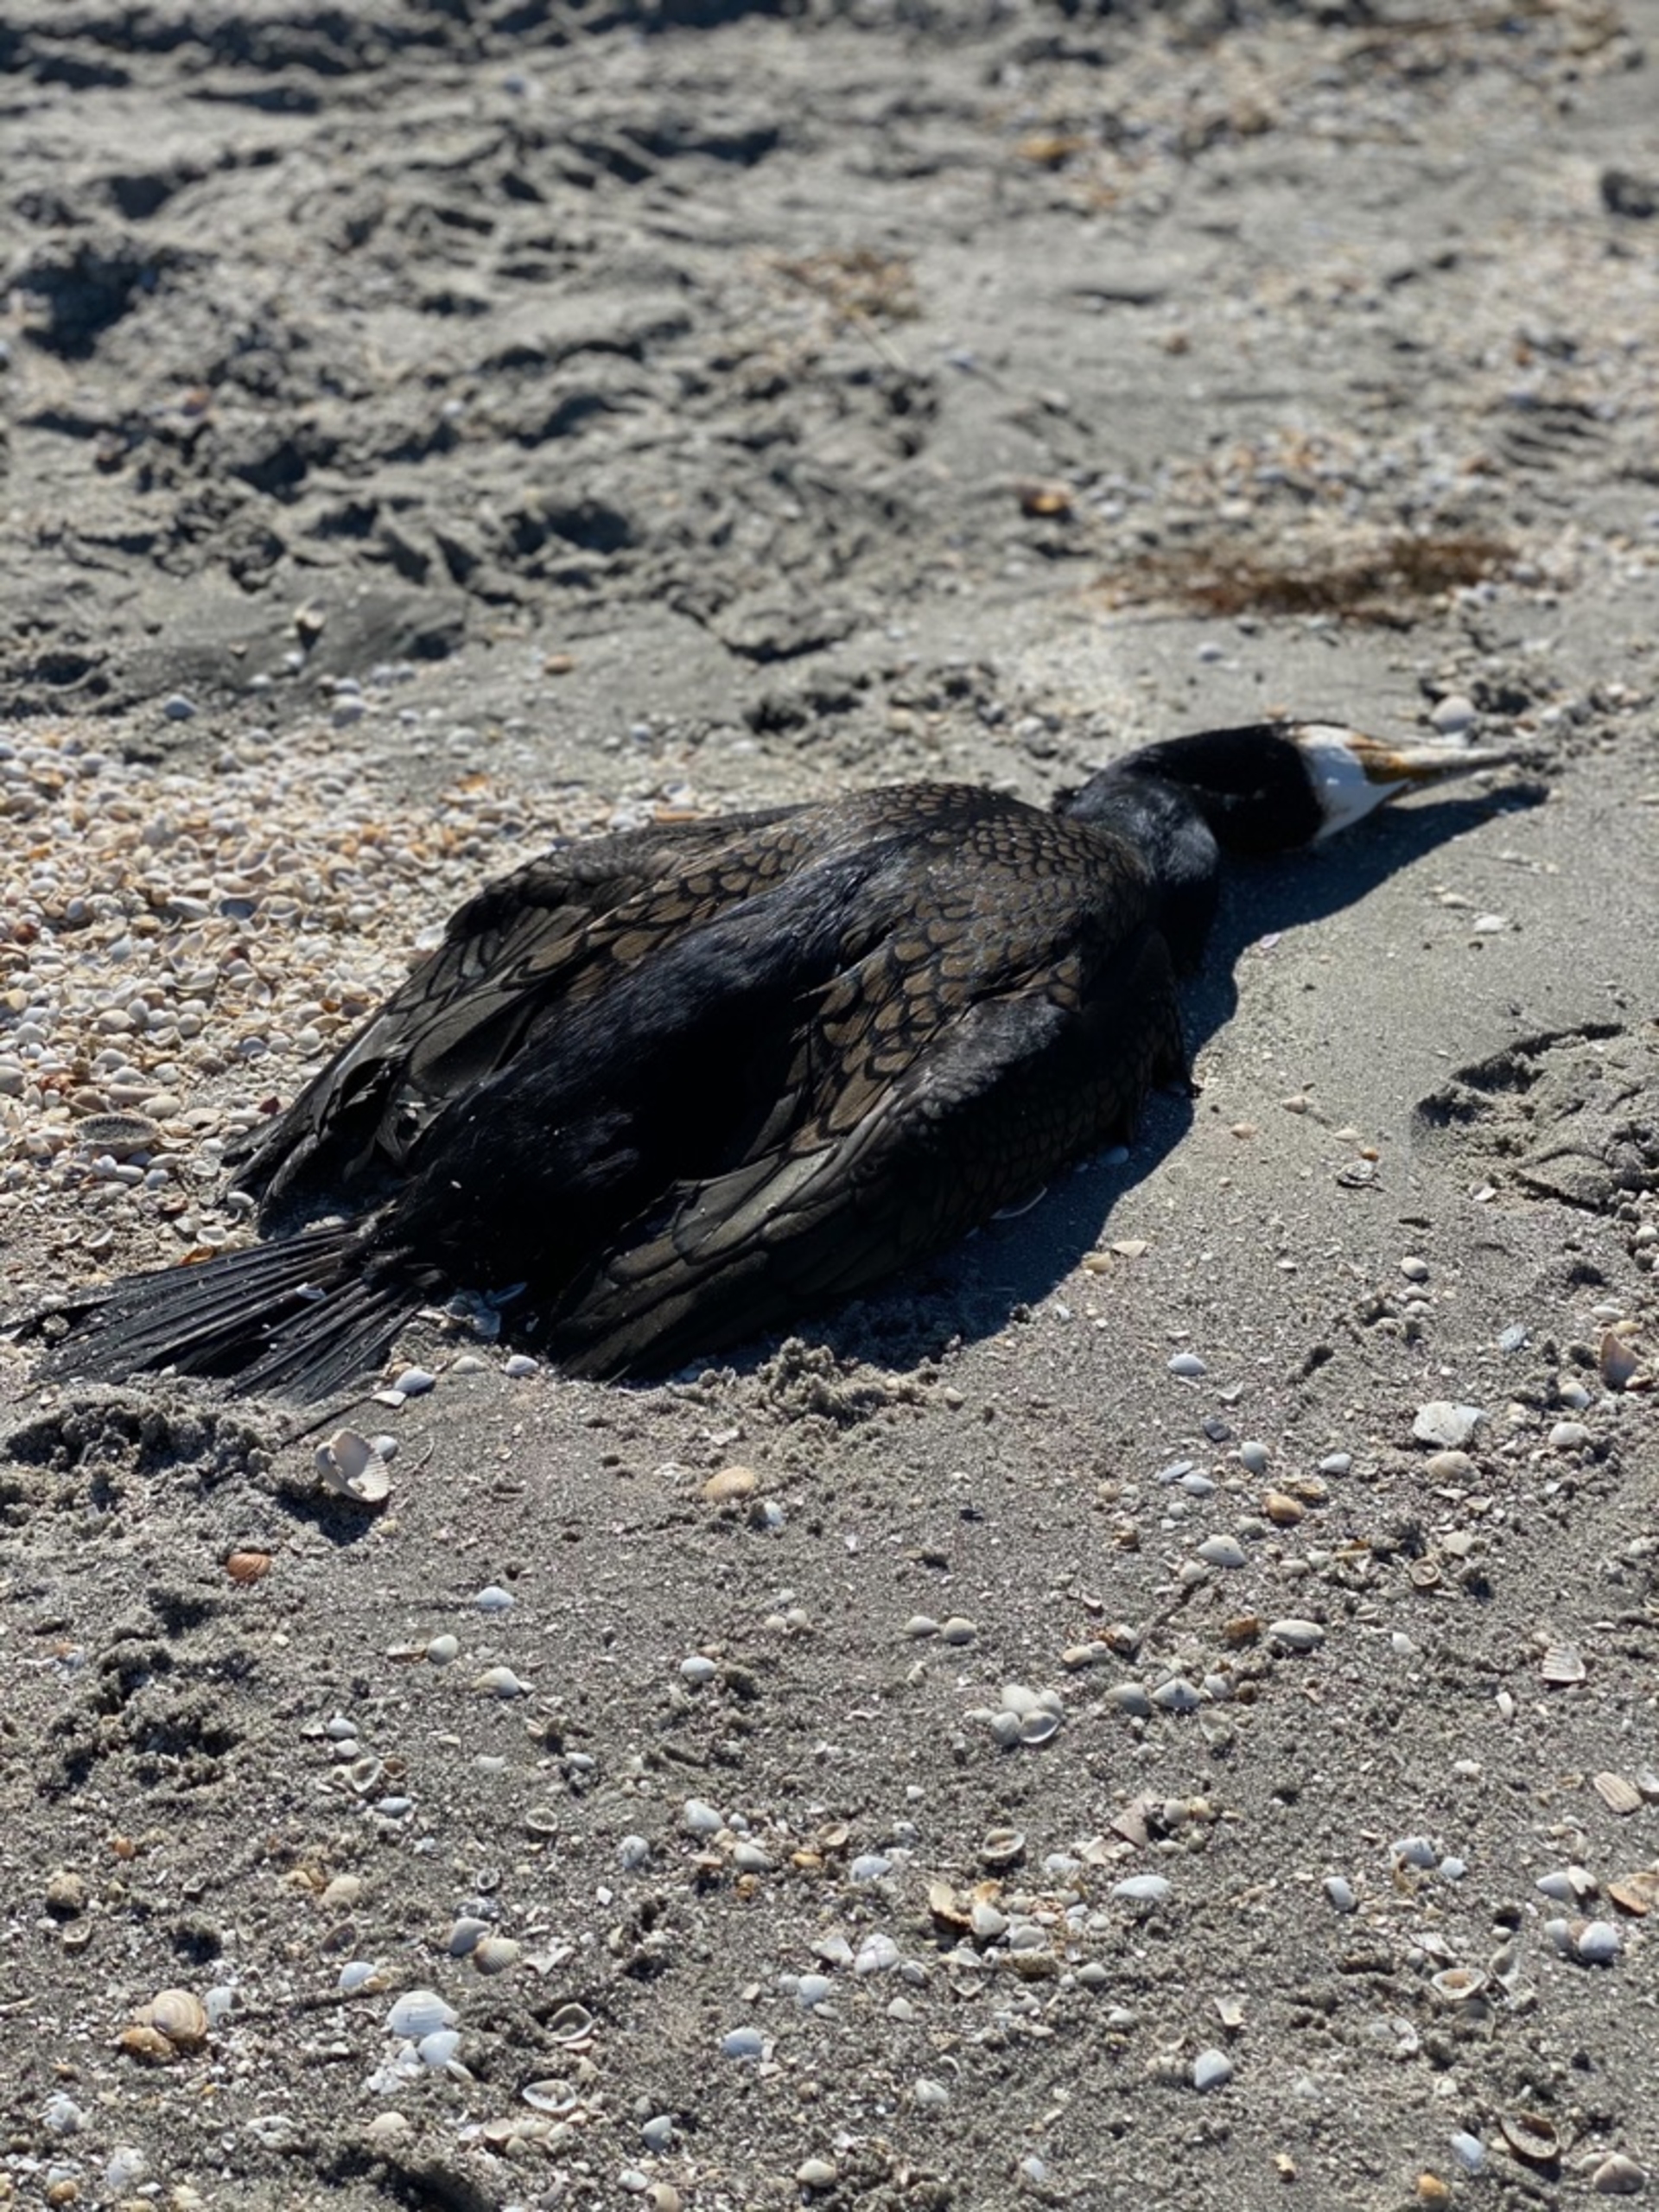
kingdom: Animalia
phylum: Chordata
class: Aves
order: Suliformes
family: Phalacrocoracidae
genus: Phalacrocorax
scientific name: Phalacrocorax carbo
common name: Skarv
